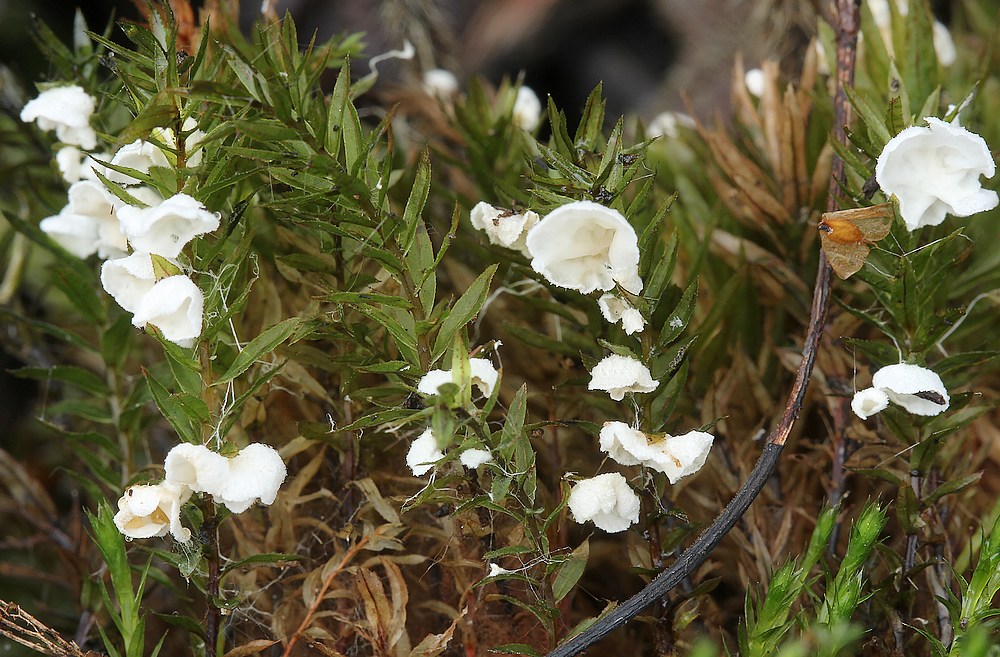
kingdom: Fungi
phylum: Basidiomycota
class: Agaricomycetes
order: Agaricales
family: Tricholomataceae
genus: Rimbachia
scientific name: Rimbachia arachnoidea
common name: Almindelig mosskål
